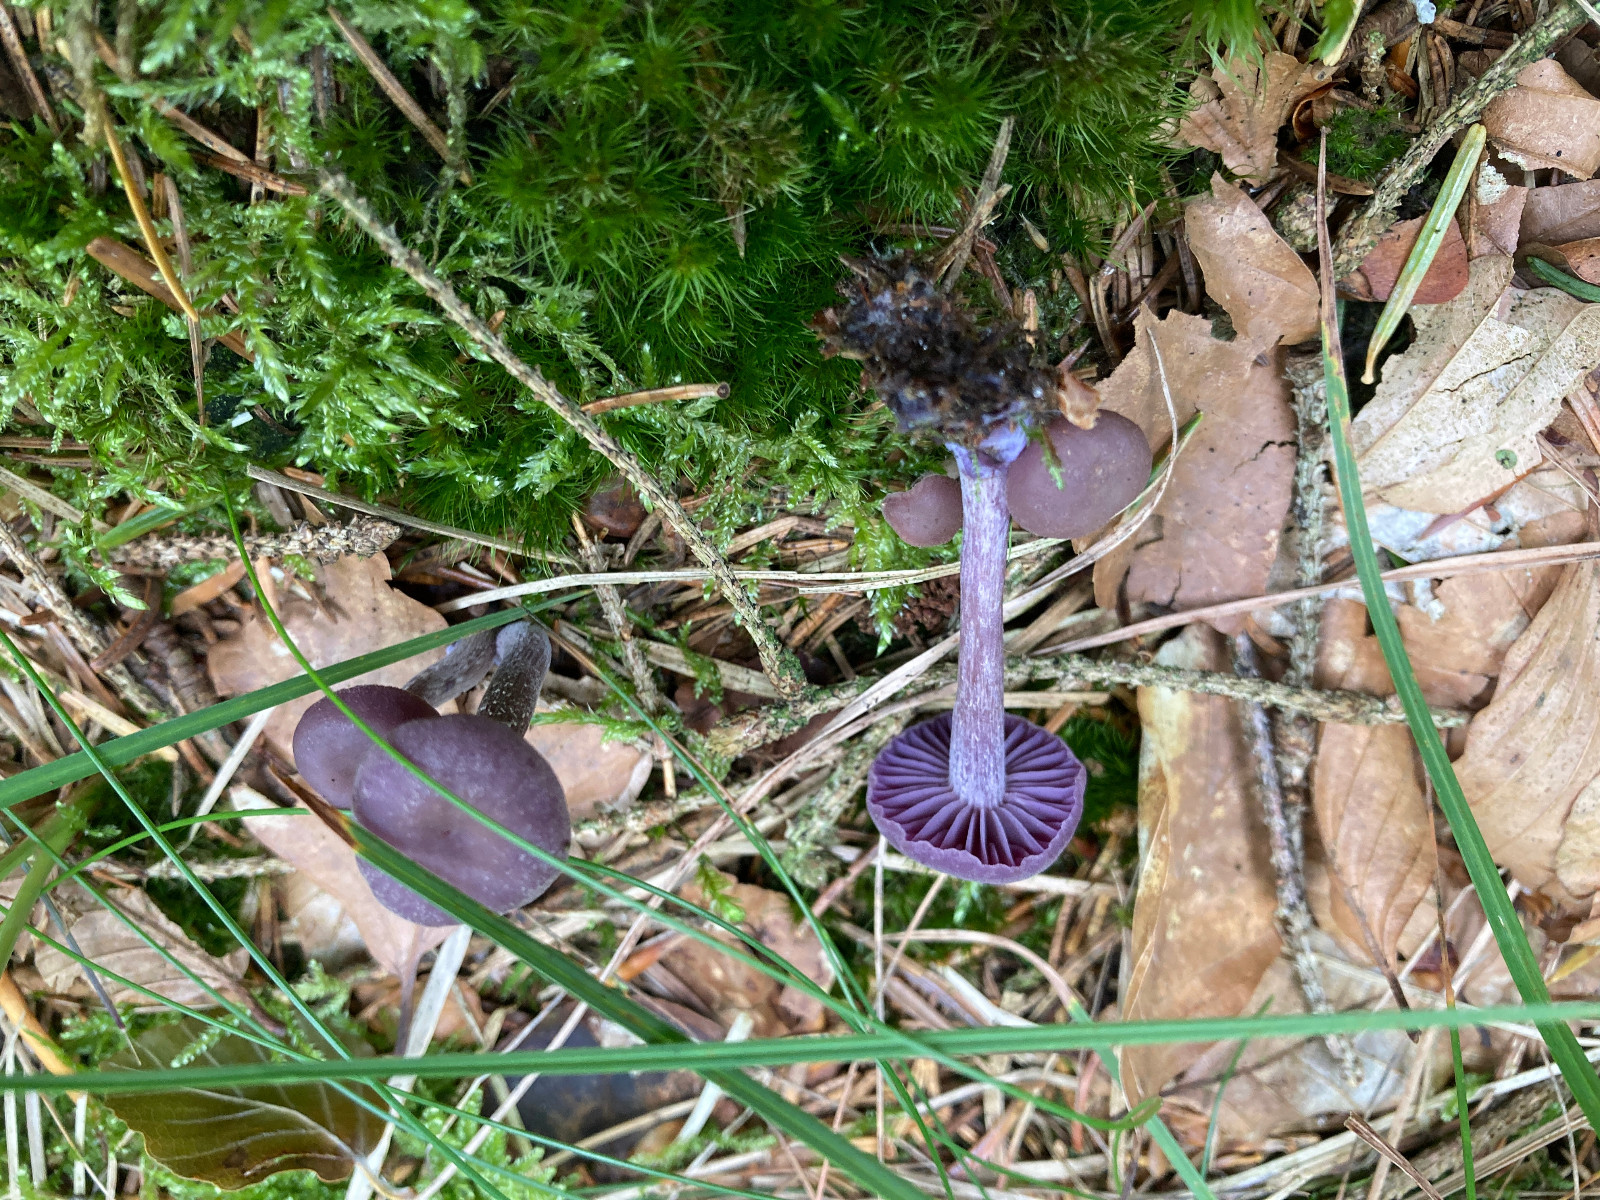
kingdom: Fungi
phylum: Basidiomycota
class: Agaricomycetes
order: Agaricales
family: Hydnangiaceae
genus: Laccaria
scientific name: Laccaria amethystina
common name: violet ametysthat
